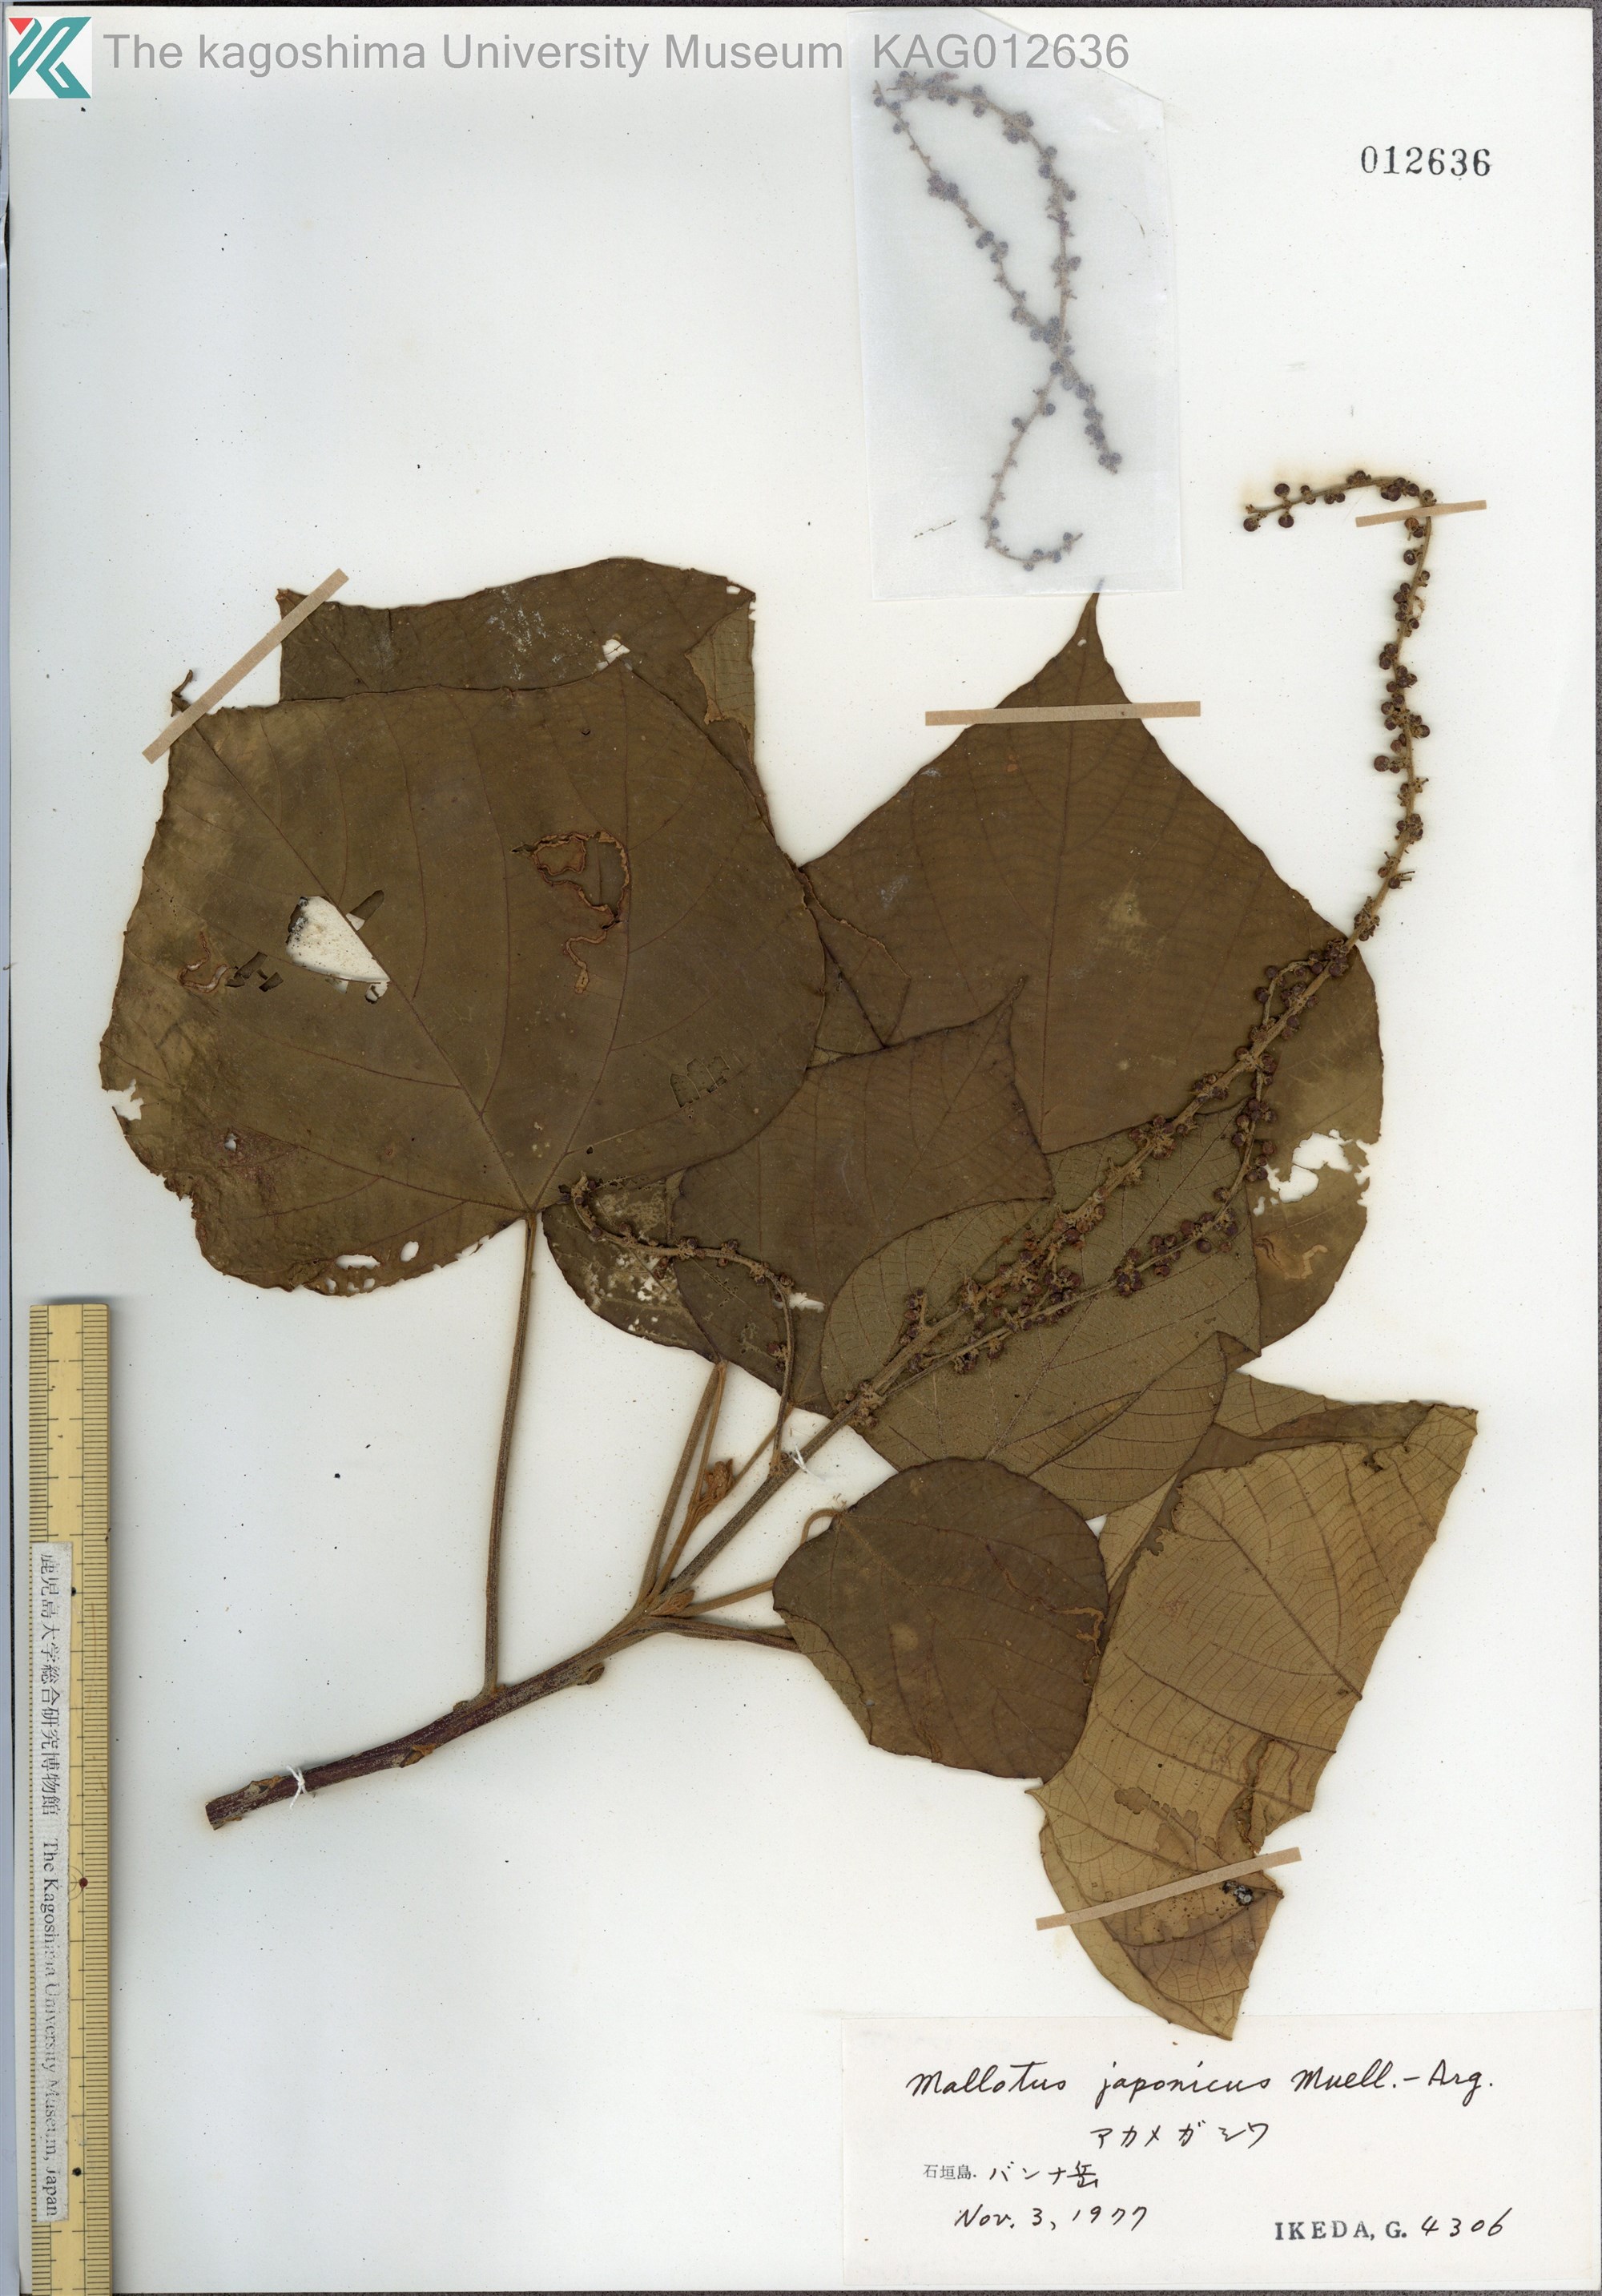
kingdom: Plantae
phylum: Tracheophyta
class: Magnoliopsida
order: Malpighiales
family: Euphorbiaceae
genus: Mallotus
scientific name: Mallotus japonicus
